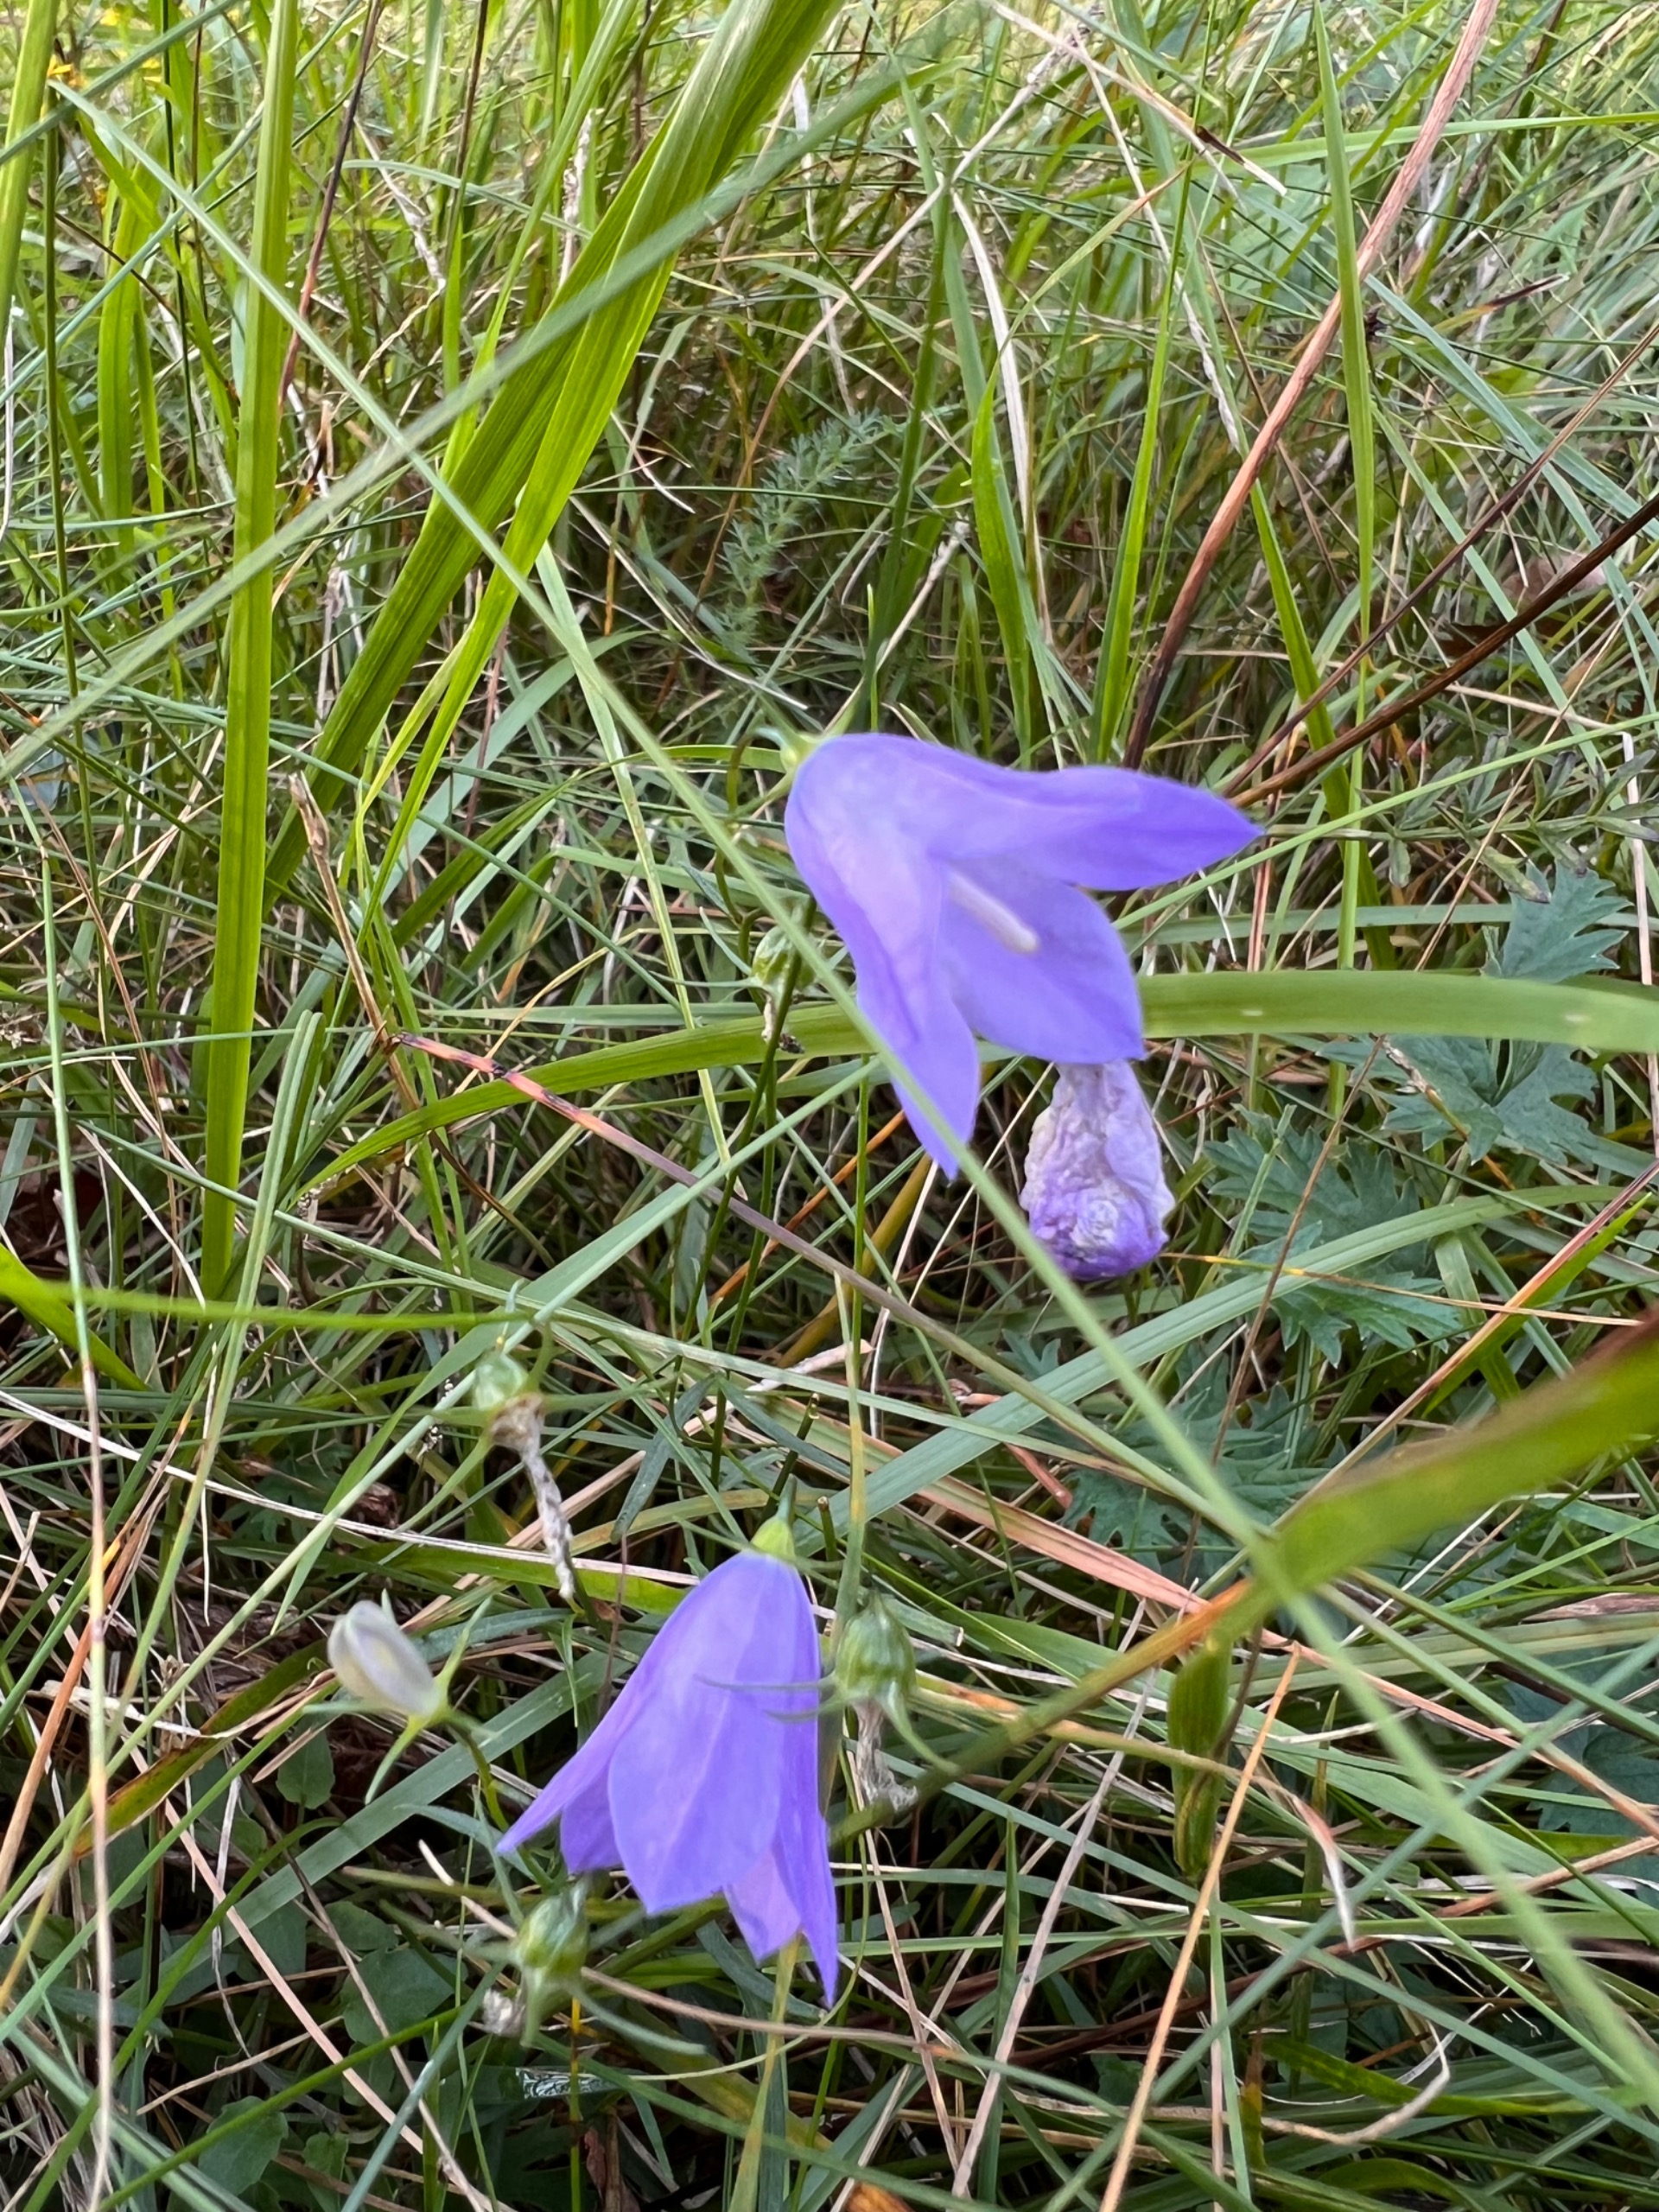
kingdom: Plantae
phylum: Tracheophyta
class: Magnoliopsida
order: Asterales
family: Campanulaceae
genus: Campanula
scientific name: Campanula rotundifolia
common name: Liden klokke
